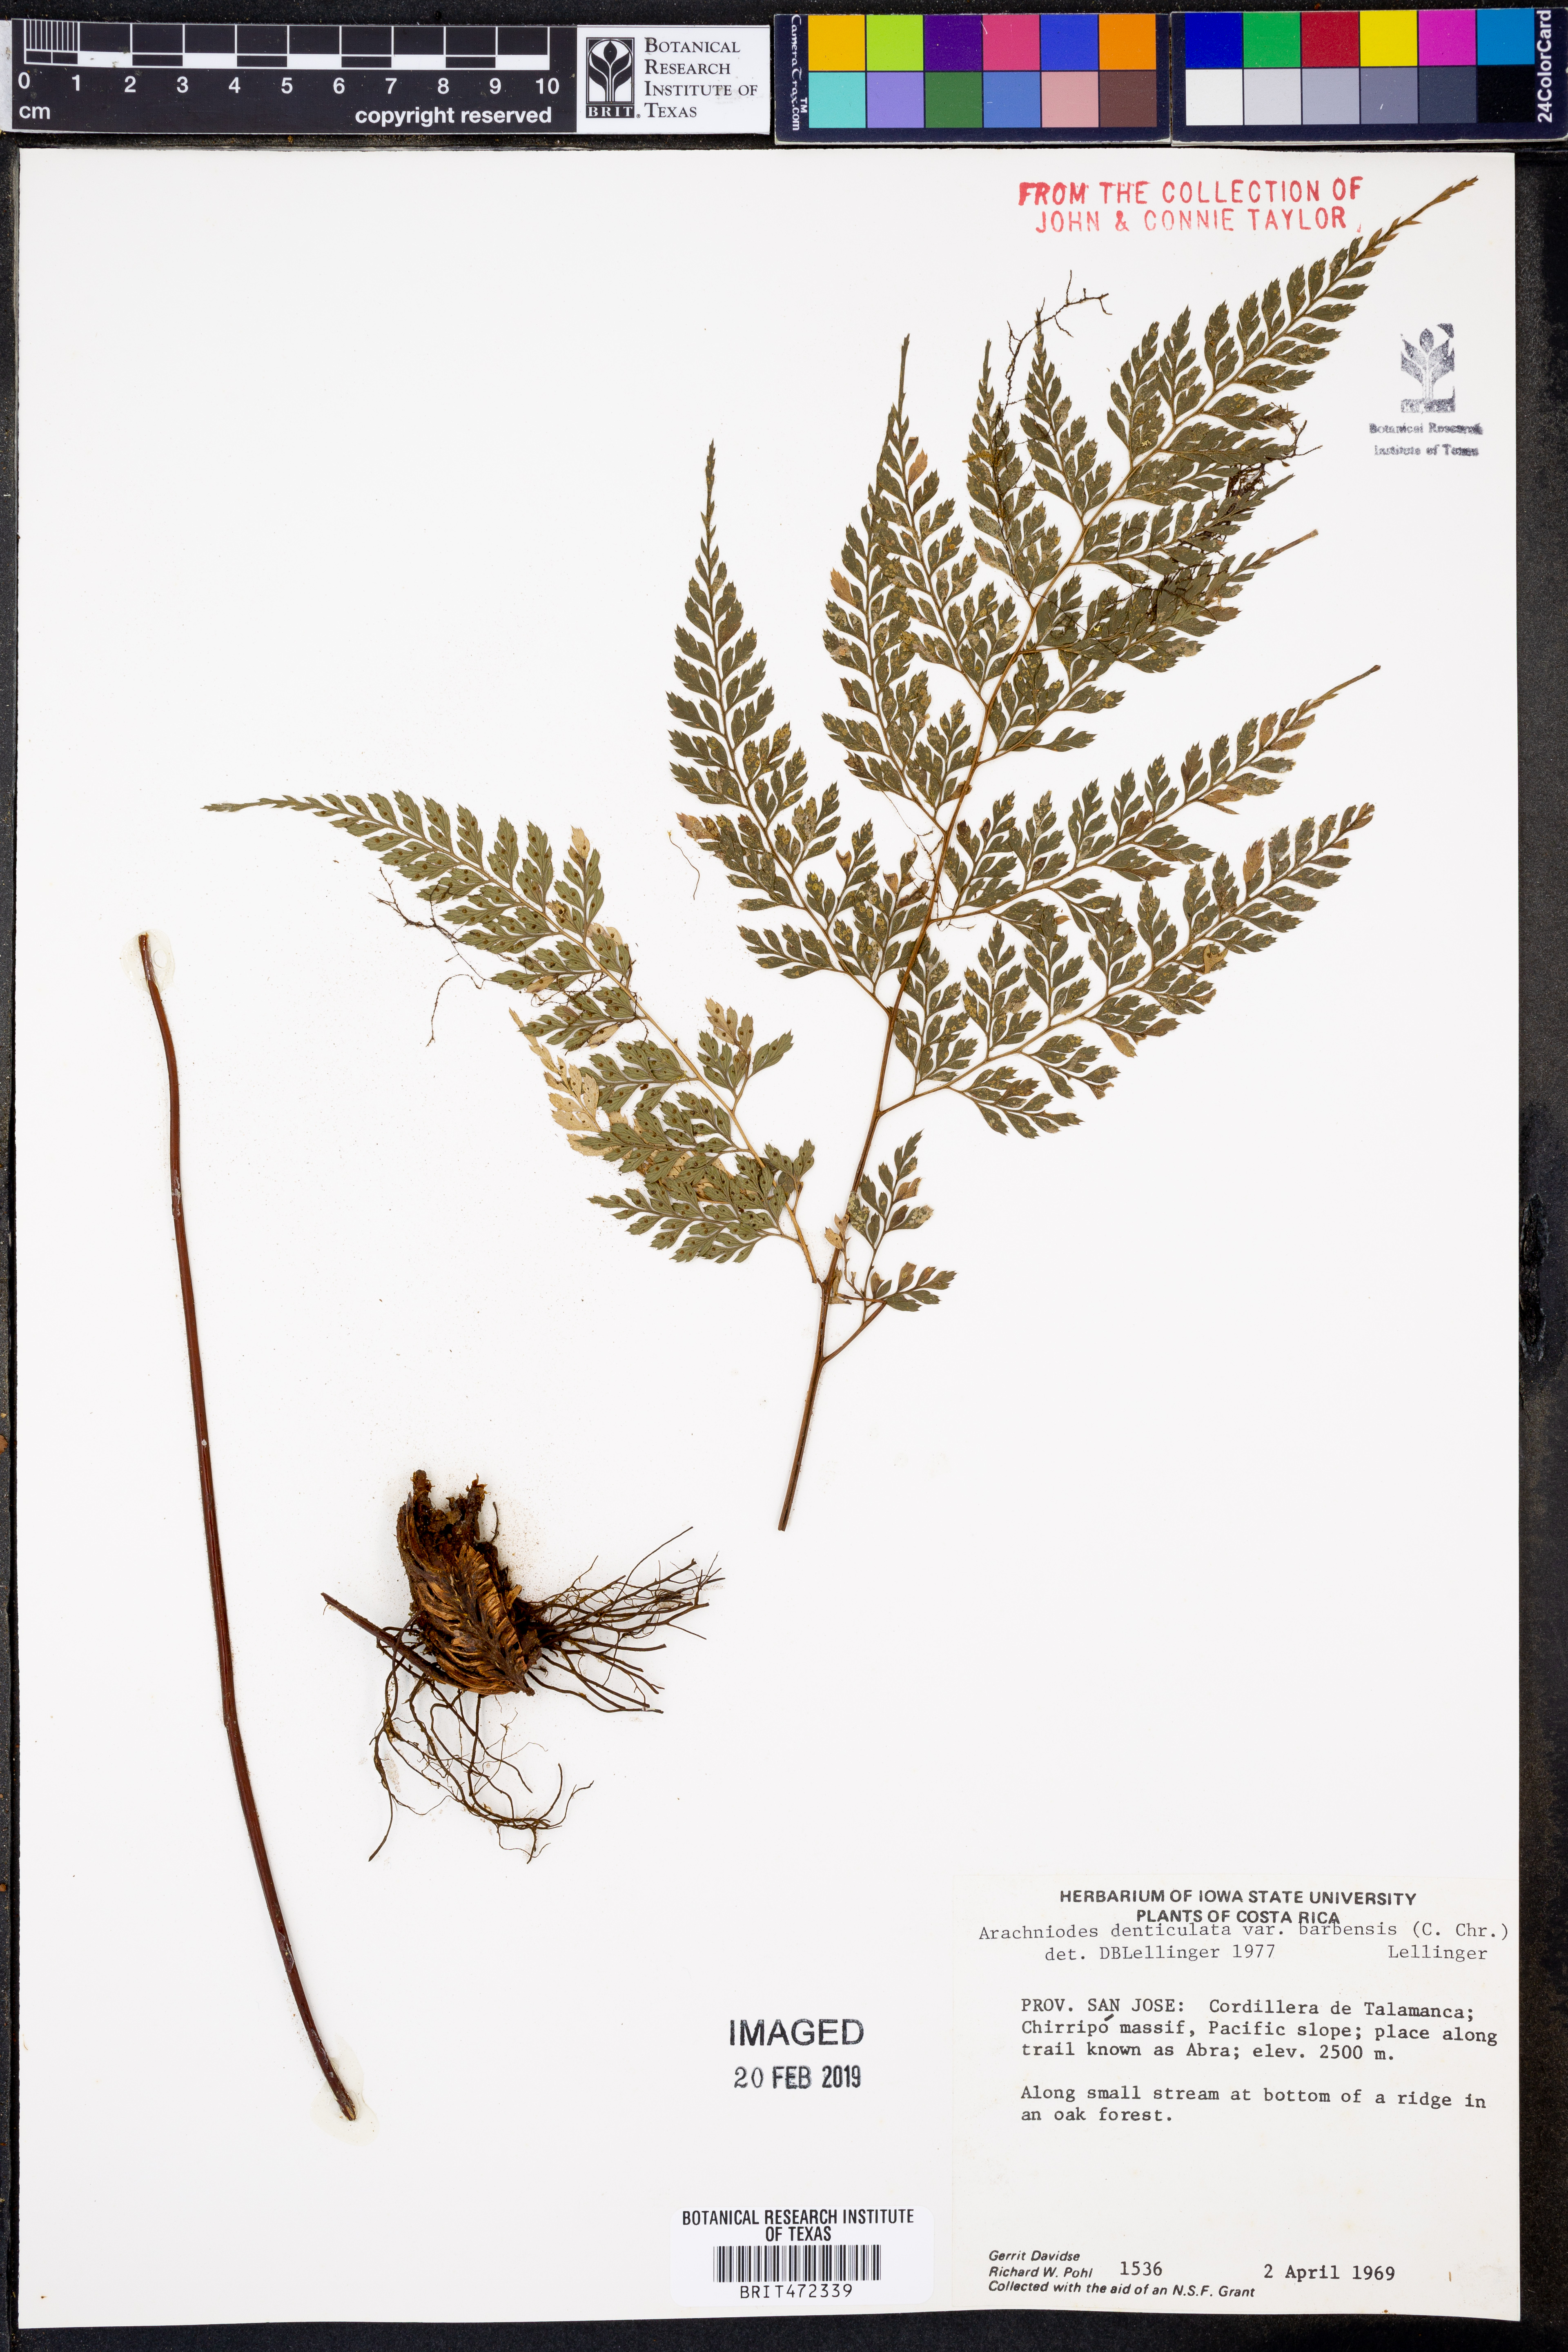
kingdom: Plantae
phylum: Tracheophyta
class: Polypodiopsida
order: Polypodiales
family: Dryopteridaceae
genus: Arachniodes
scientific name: Arachniodes denticulata
